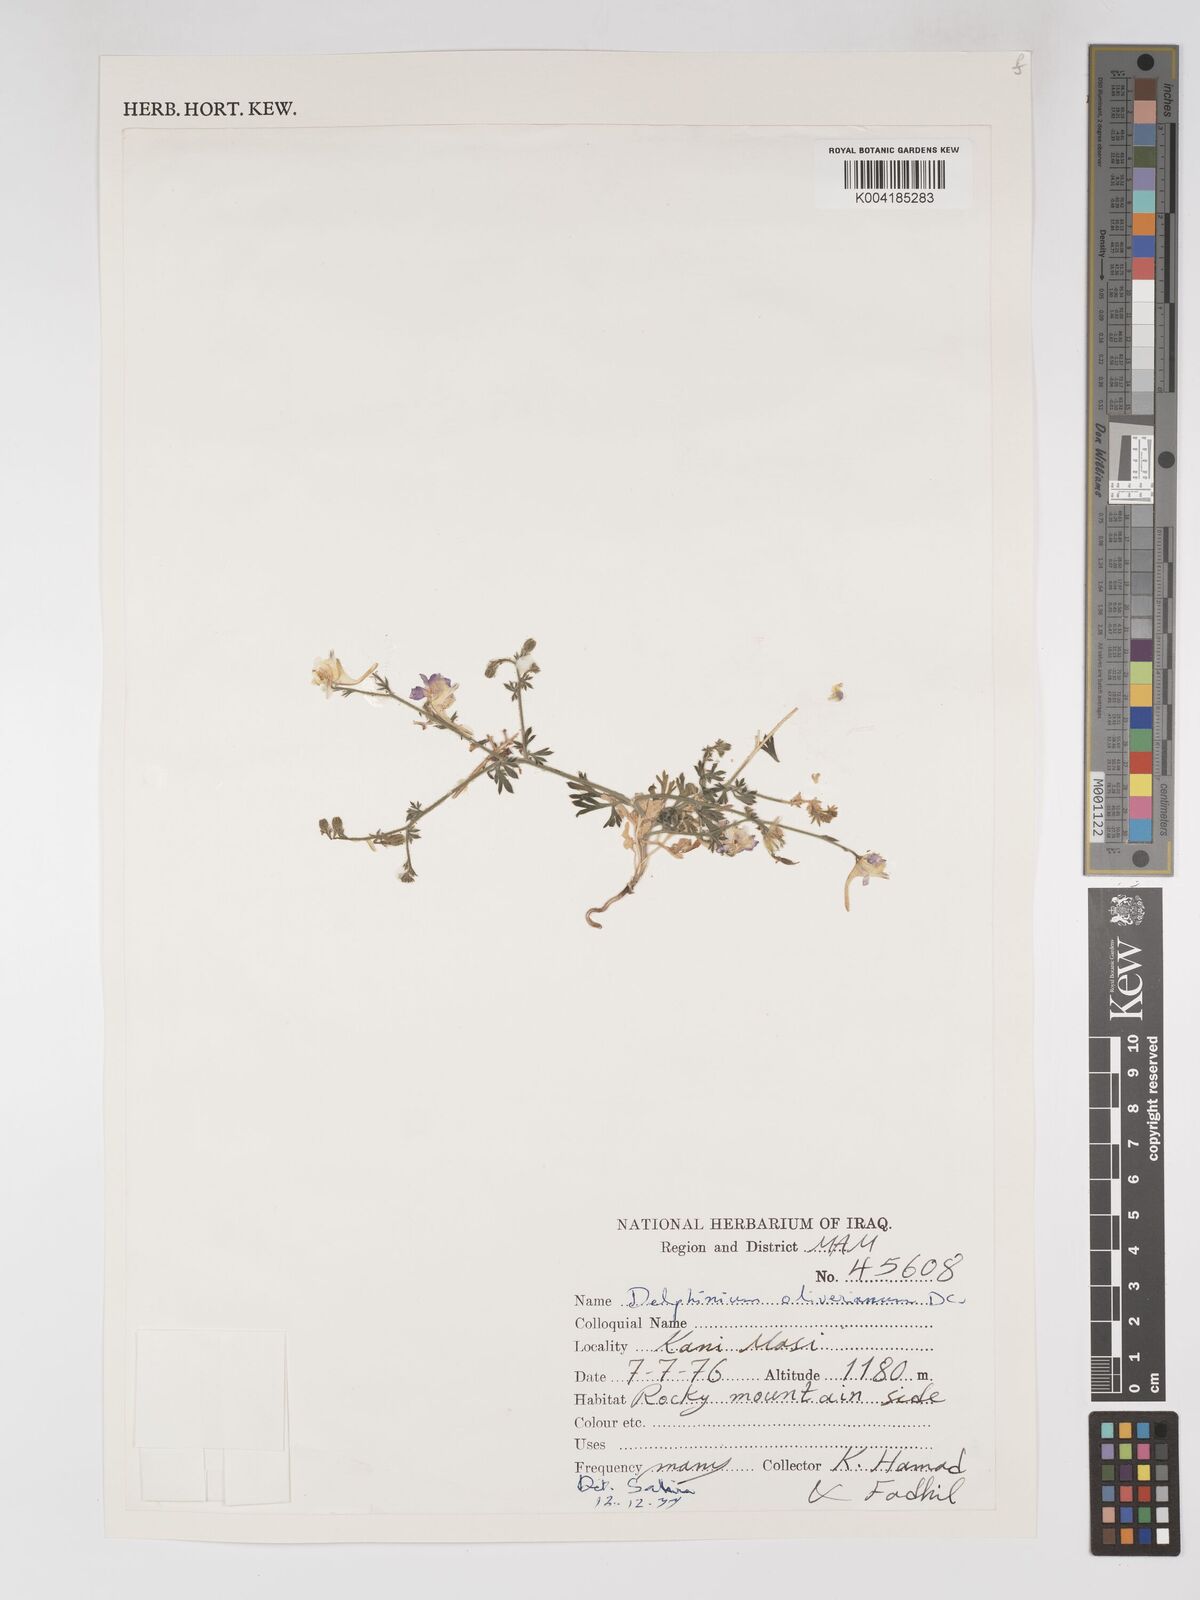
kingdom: Plantae
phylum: Tracheophyta
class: Magnoliopsida
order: Ranunculales
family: Ranunculaceae
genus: Delphinium
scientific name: Delphinium oliverianum
